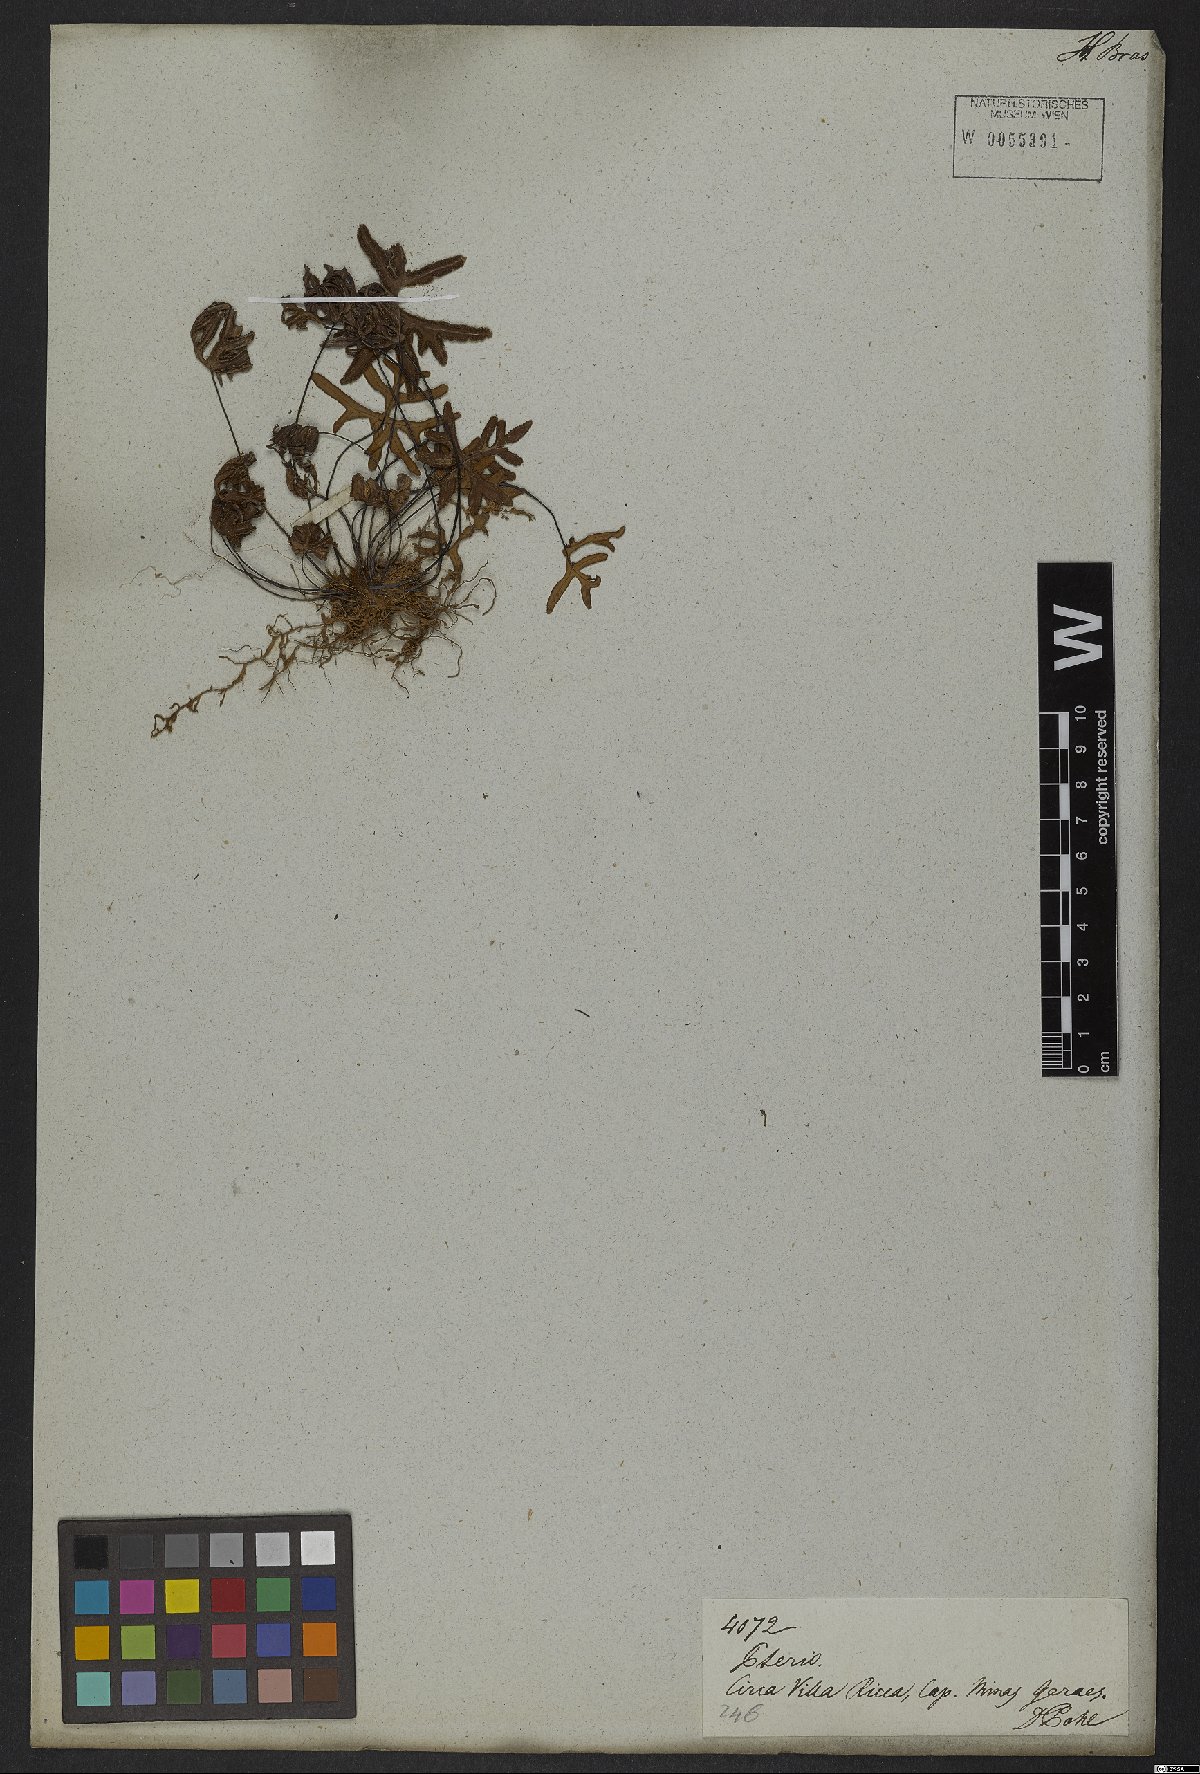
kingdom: Plantae
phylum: Tracheophyta
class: Polypodiopsida
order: Polypodiales
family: Pteridaceae
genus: Doryopteris
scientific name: Doryopteris
